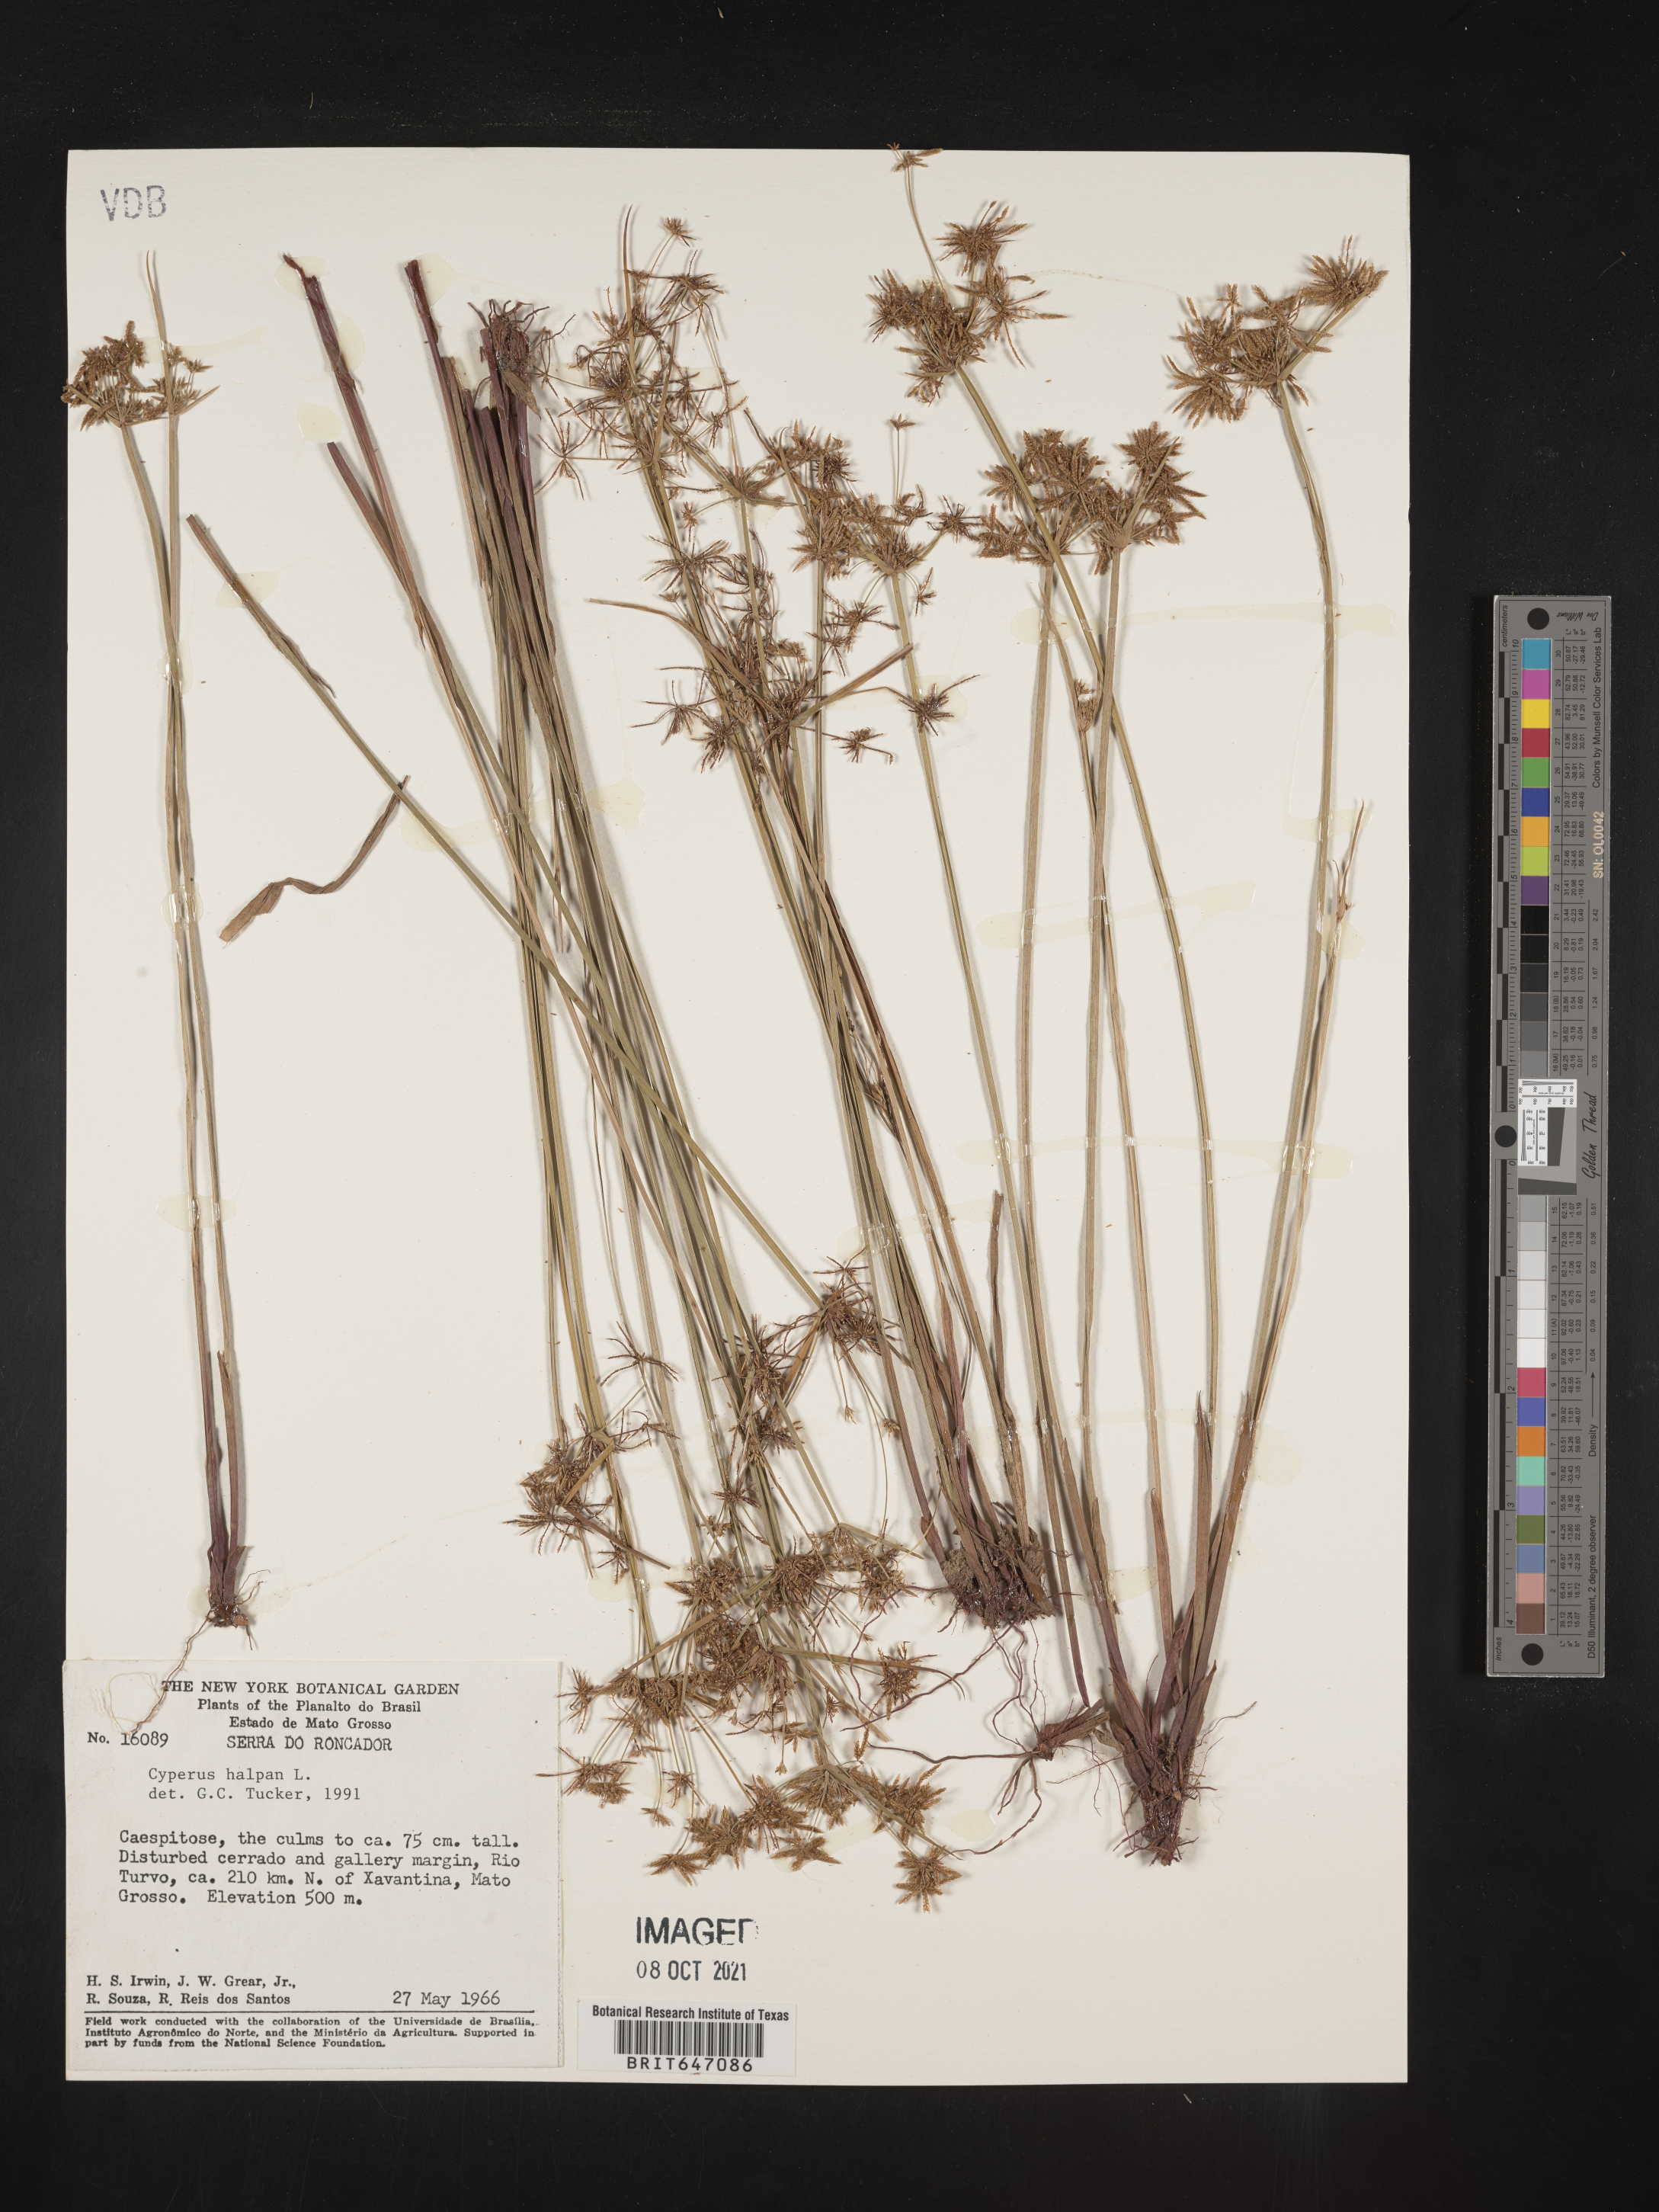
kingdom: Plantae
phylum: Tracheophyta
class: Liliopsida
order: Poales
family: Cyperaceae
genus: Cyperus
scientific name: Cyperus haspan
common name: Haspan flatsedge
